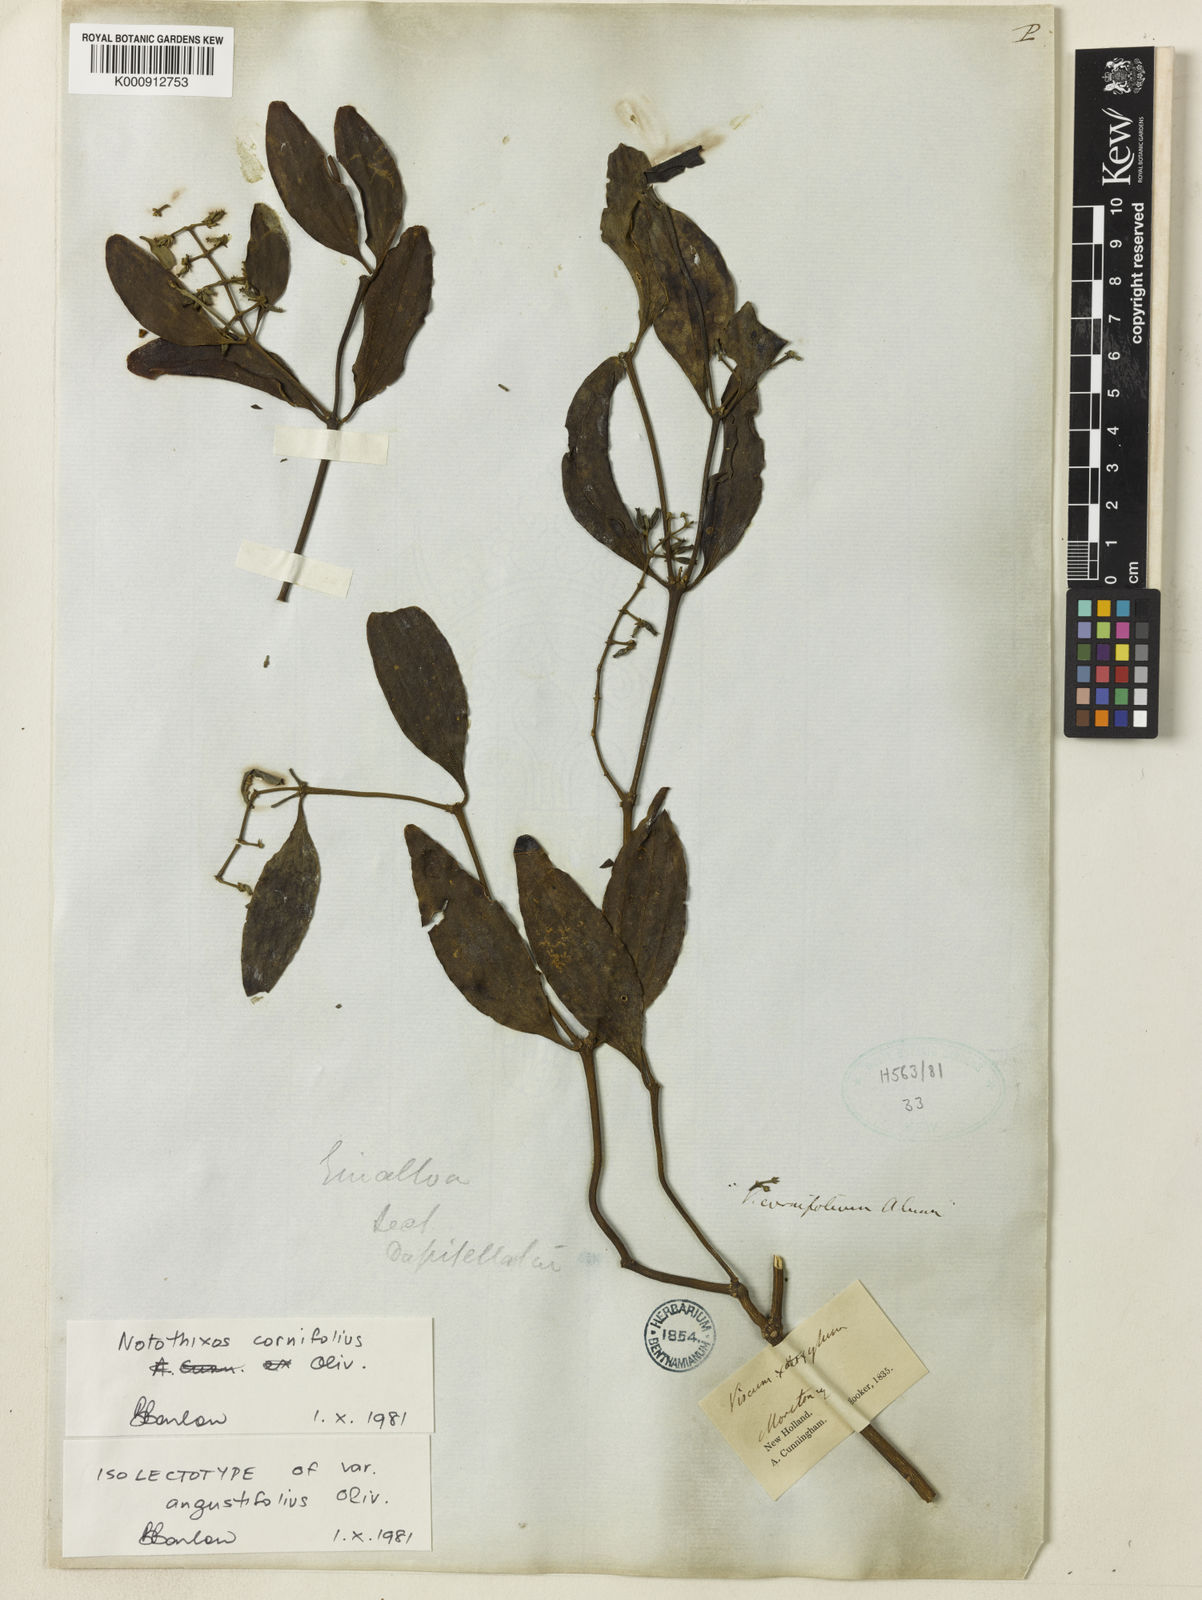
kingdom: Plantae
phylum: Tracheophyta
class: Magnoliopsida
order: Santalales
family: Viscaceae
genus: Notothixos
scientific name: Notothixos cornifolius
